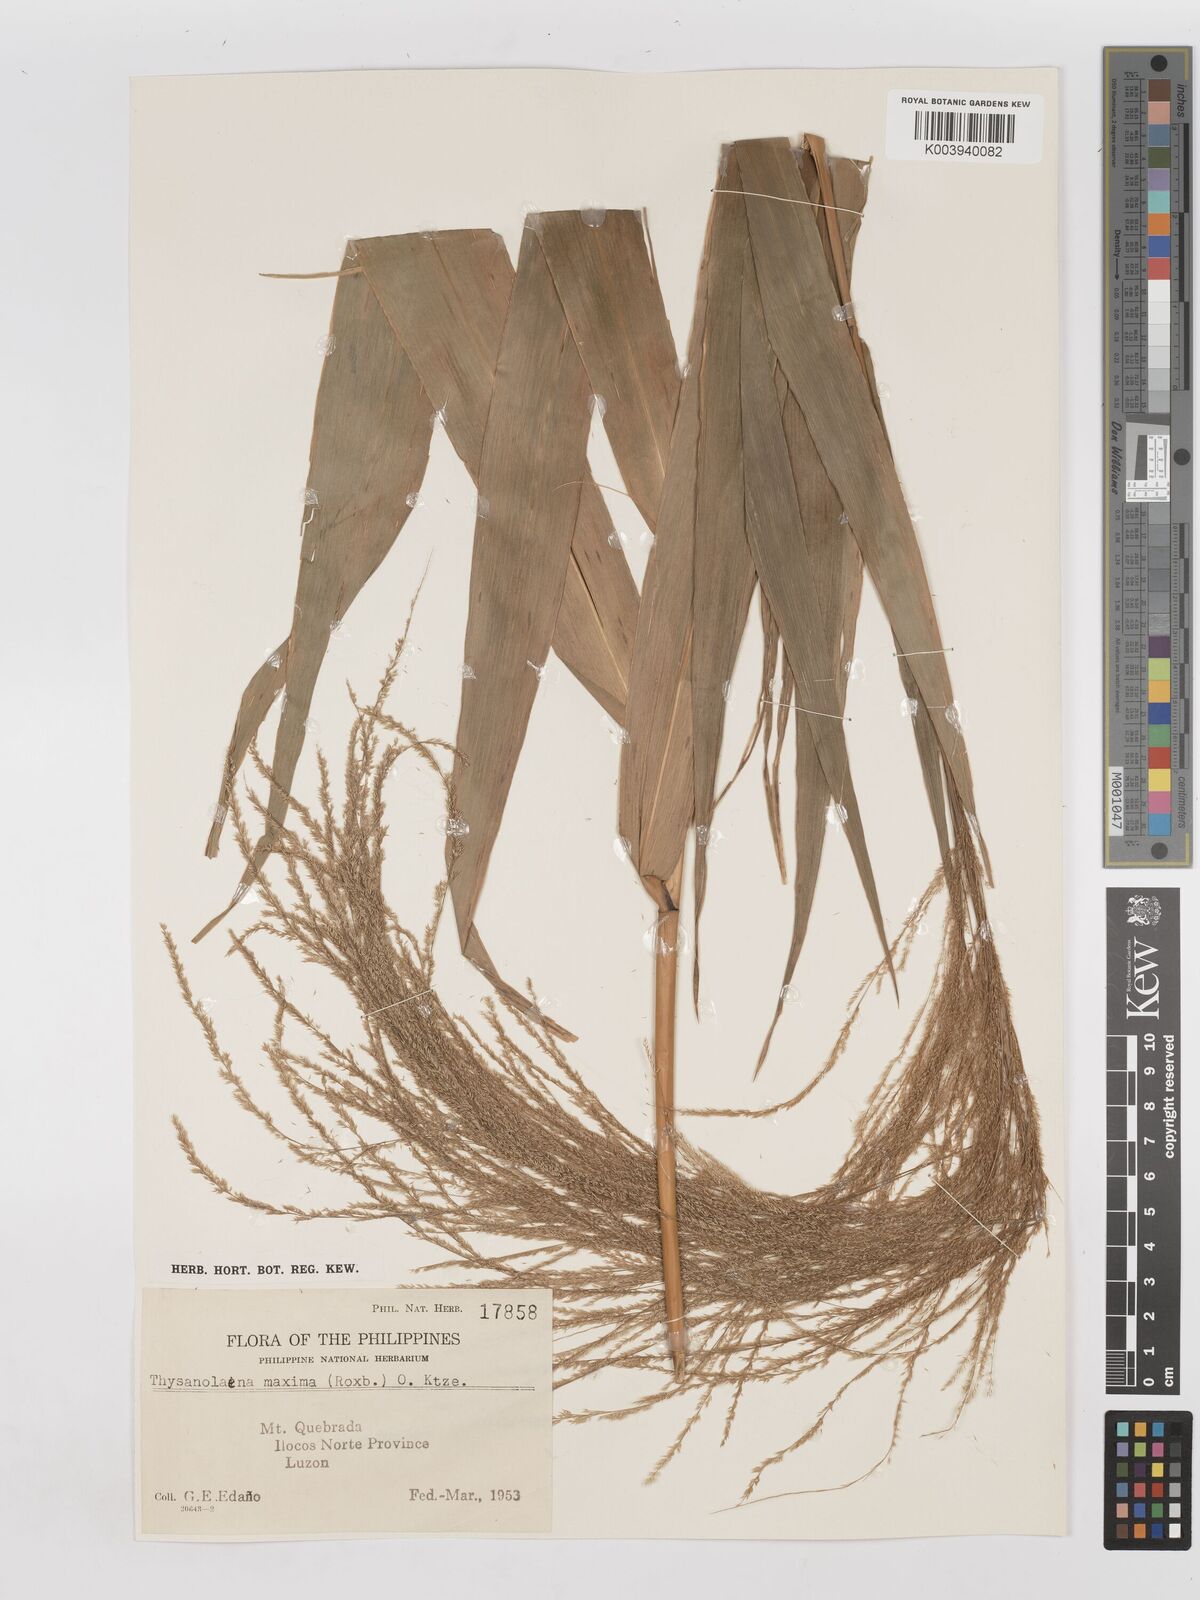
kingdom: Plantae
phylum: Tracheophyta
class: Liliopsida
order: Poales
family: Poaceae
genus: Thysanolaena
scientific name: Thysanolaena latifolia
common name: Tiger grass
